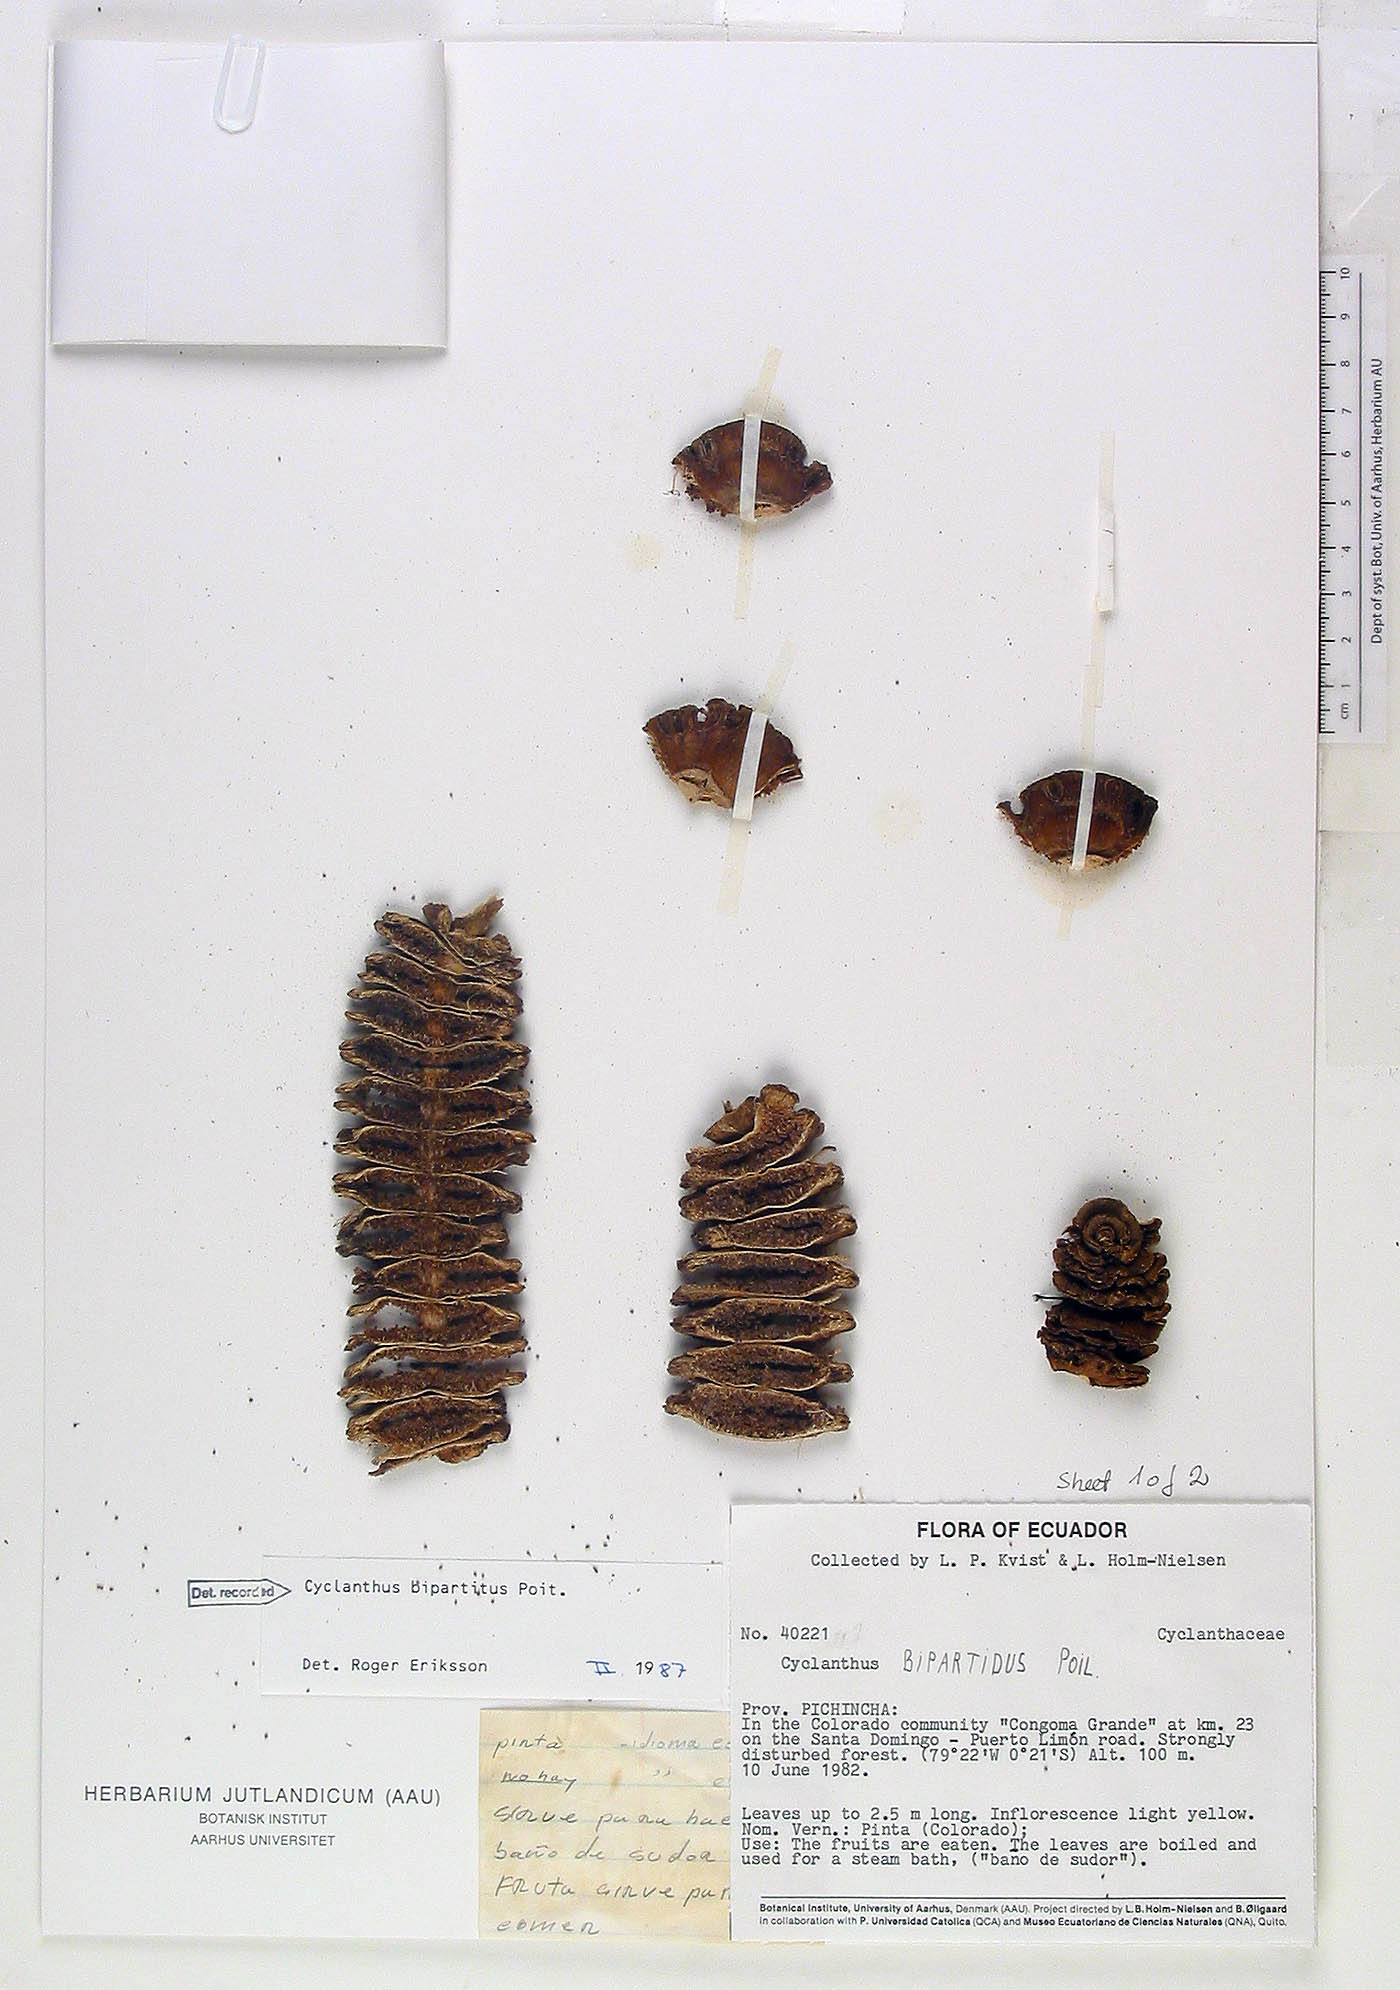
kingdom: Plantae
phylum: Tracheophyta
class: Liliopsida
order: Pandanales
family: Cyclanthaceae
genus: Cyclanthus
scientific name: Cyclanthus bipartitus
